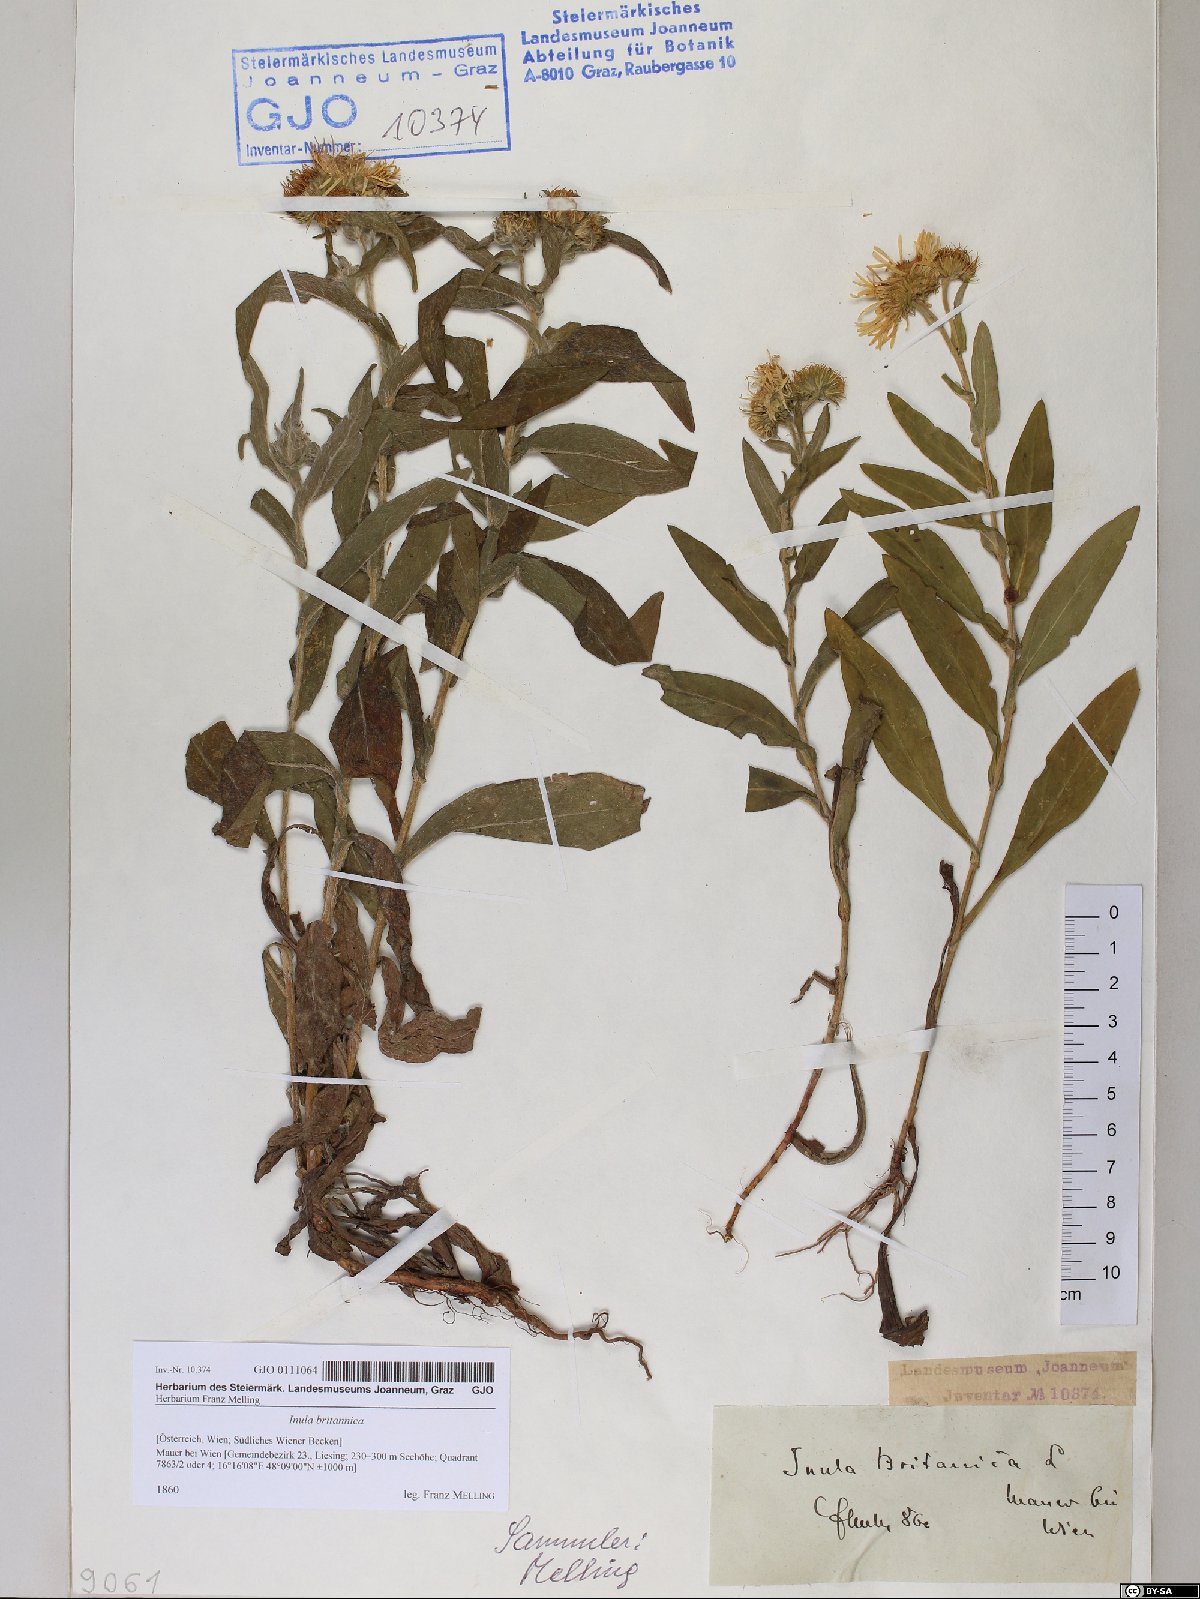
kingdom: Plantae
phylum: Tracheophyta
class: Magnoliopsida
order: Asterales
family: Asteraceae
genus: Pentanema
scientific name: Pentanema britannicum
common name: British elecampane
